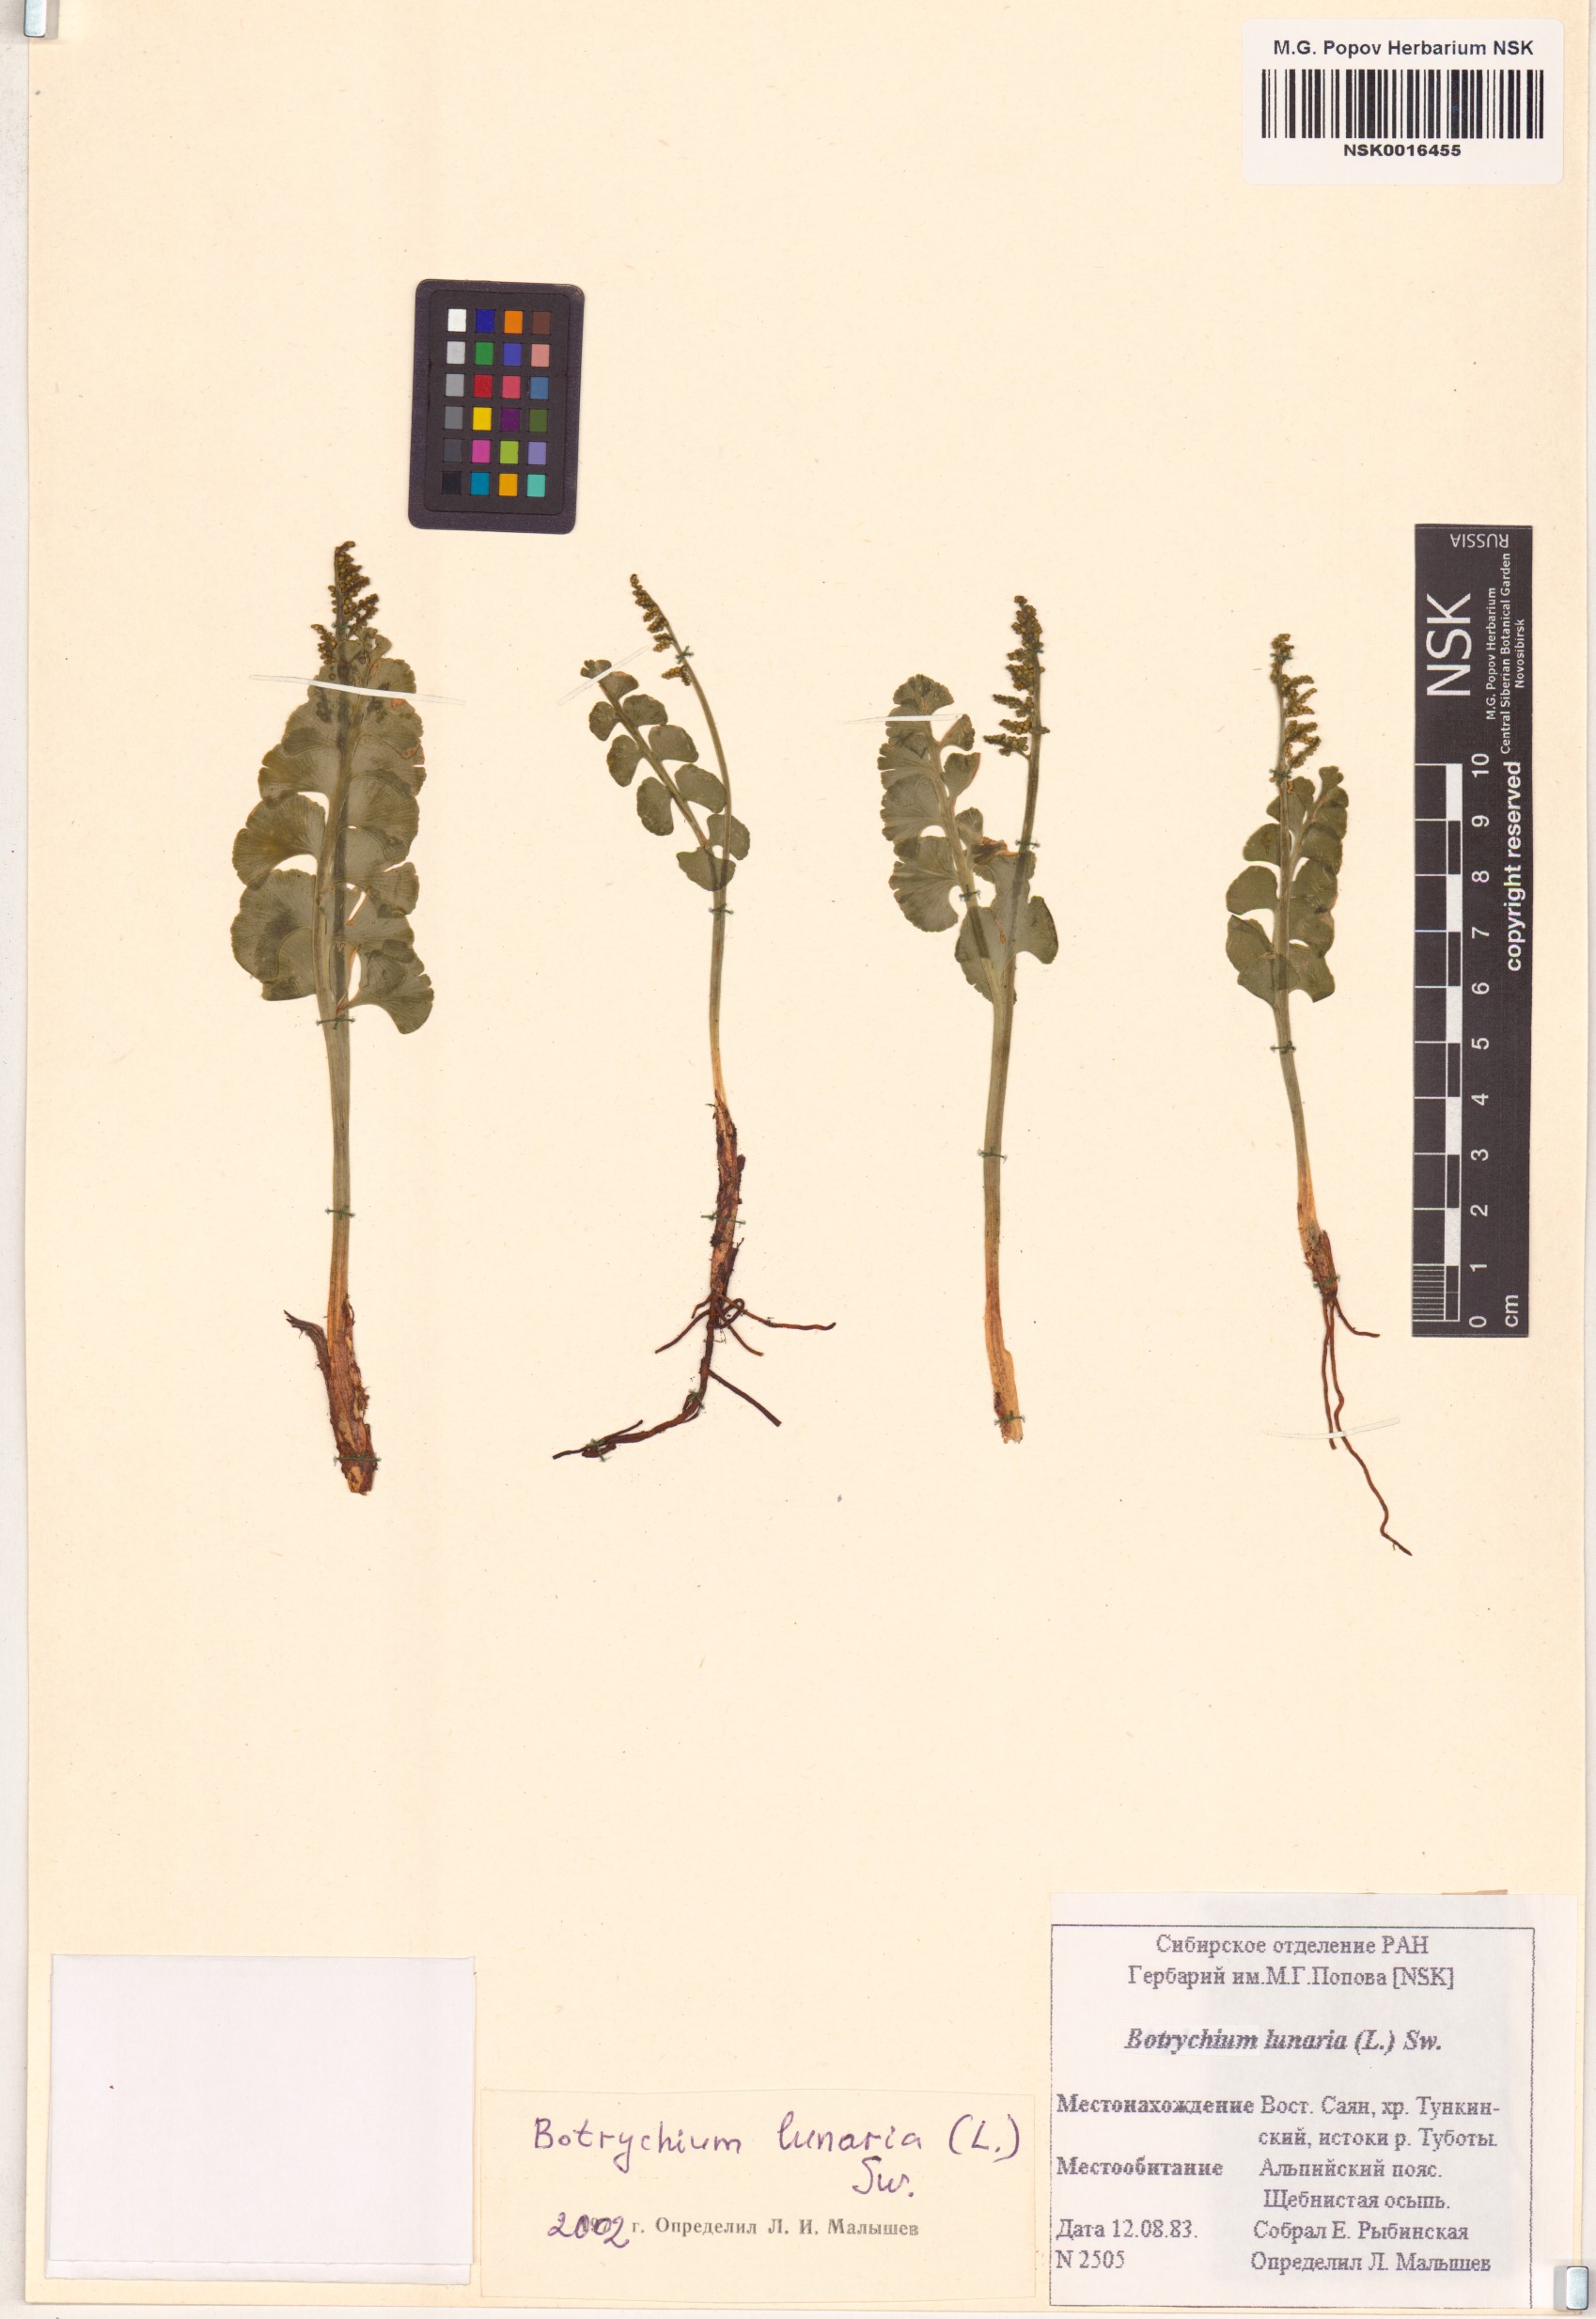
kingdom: Plantae
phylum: Tracheophyta
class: Polypodiopsida
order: Ophioglossales
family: Ophioglossaceae
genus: Botrychium
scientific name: Botrychium lunaria
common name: Moonwort
